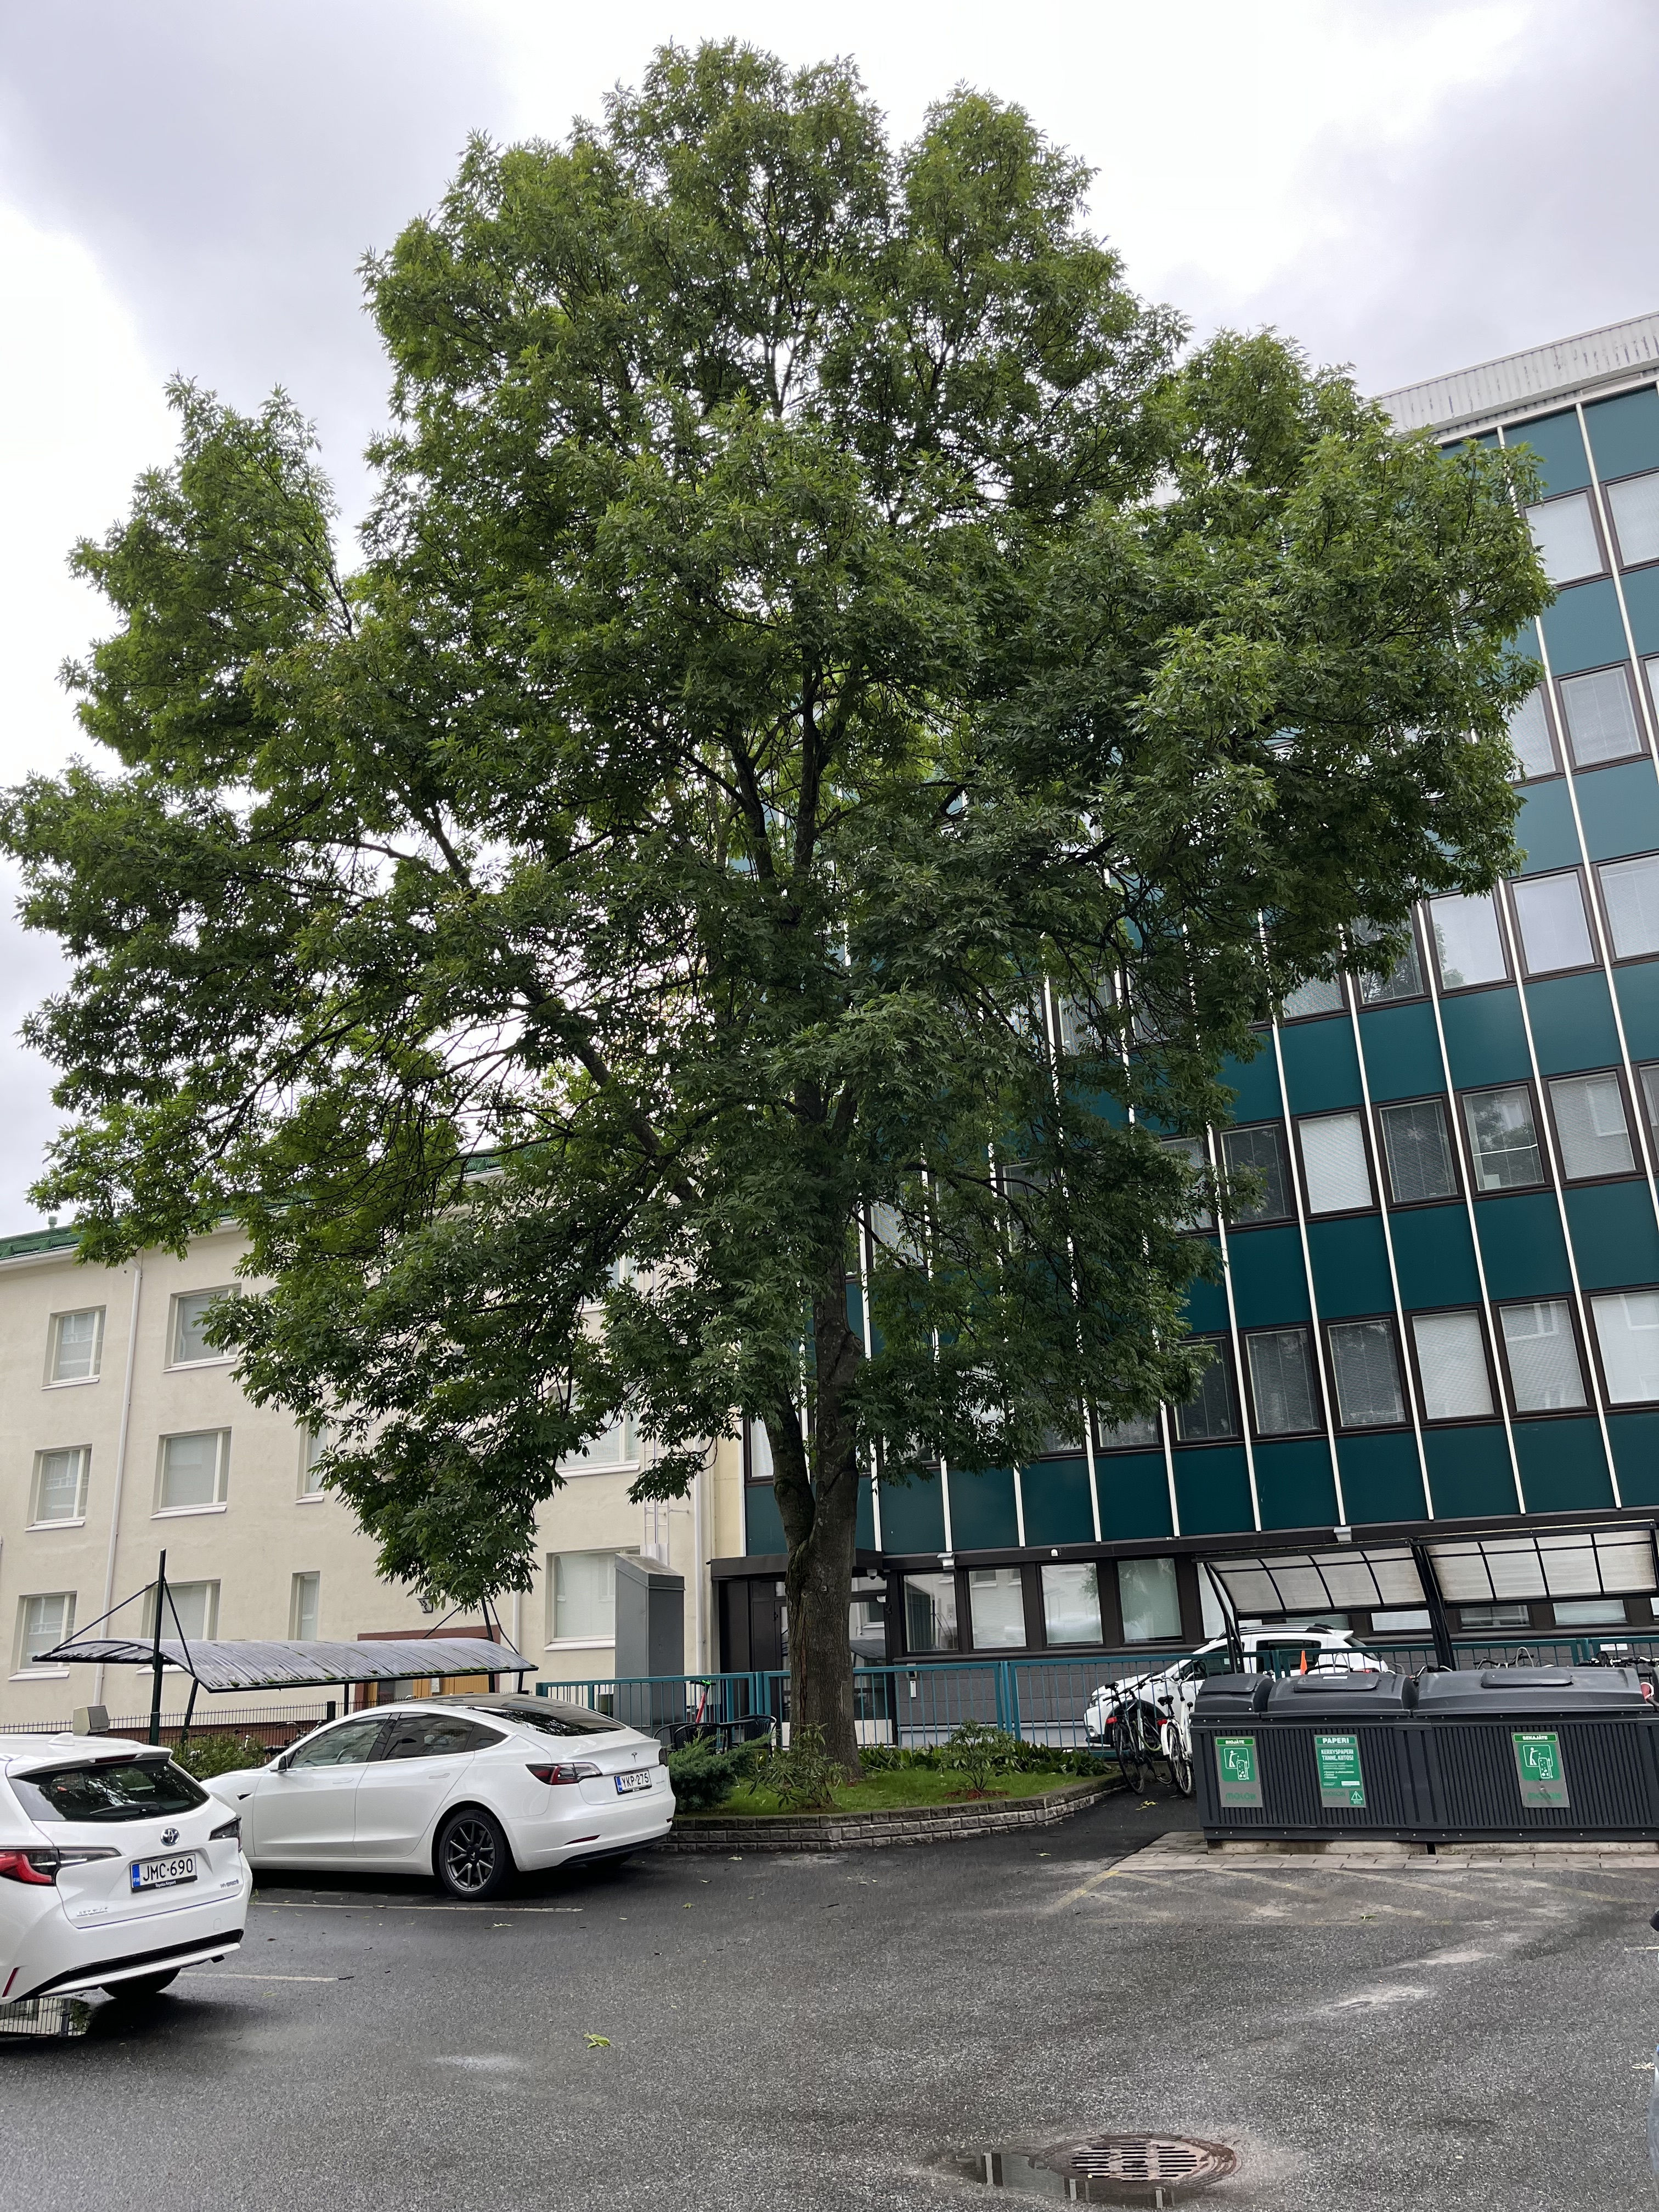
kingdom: Plantae
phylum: Tracheophyta
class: Magnoliopsida
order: Lamiales
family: Oleaceae
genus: Fraxinus
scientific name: Fraxinus excelsior
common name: European ash
